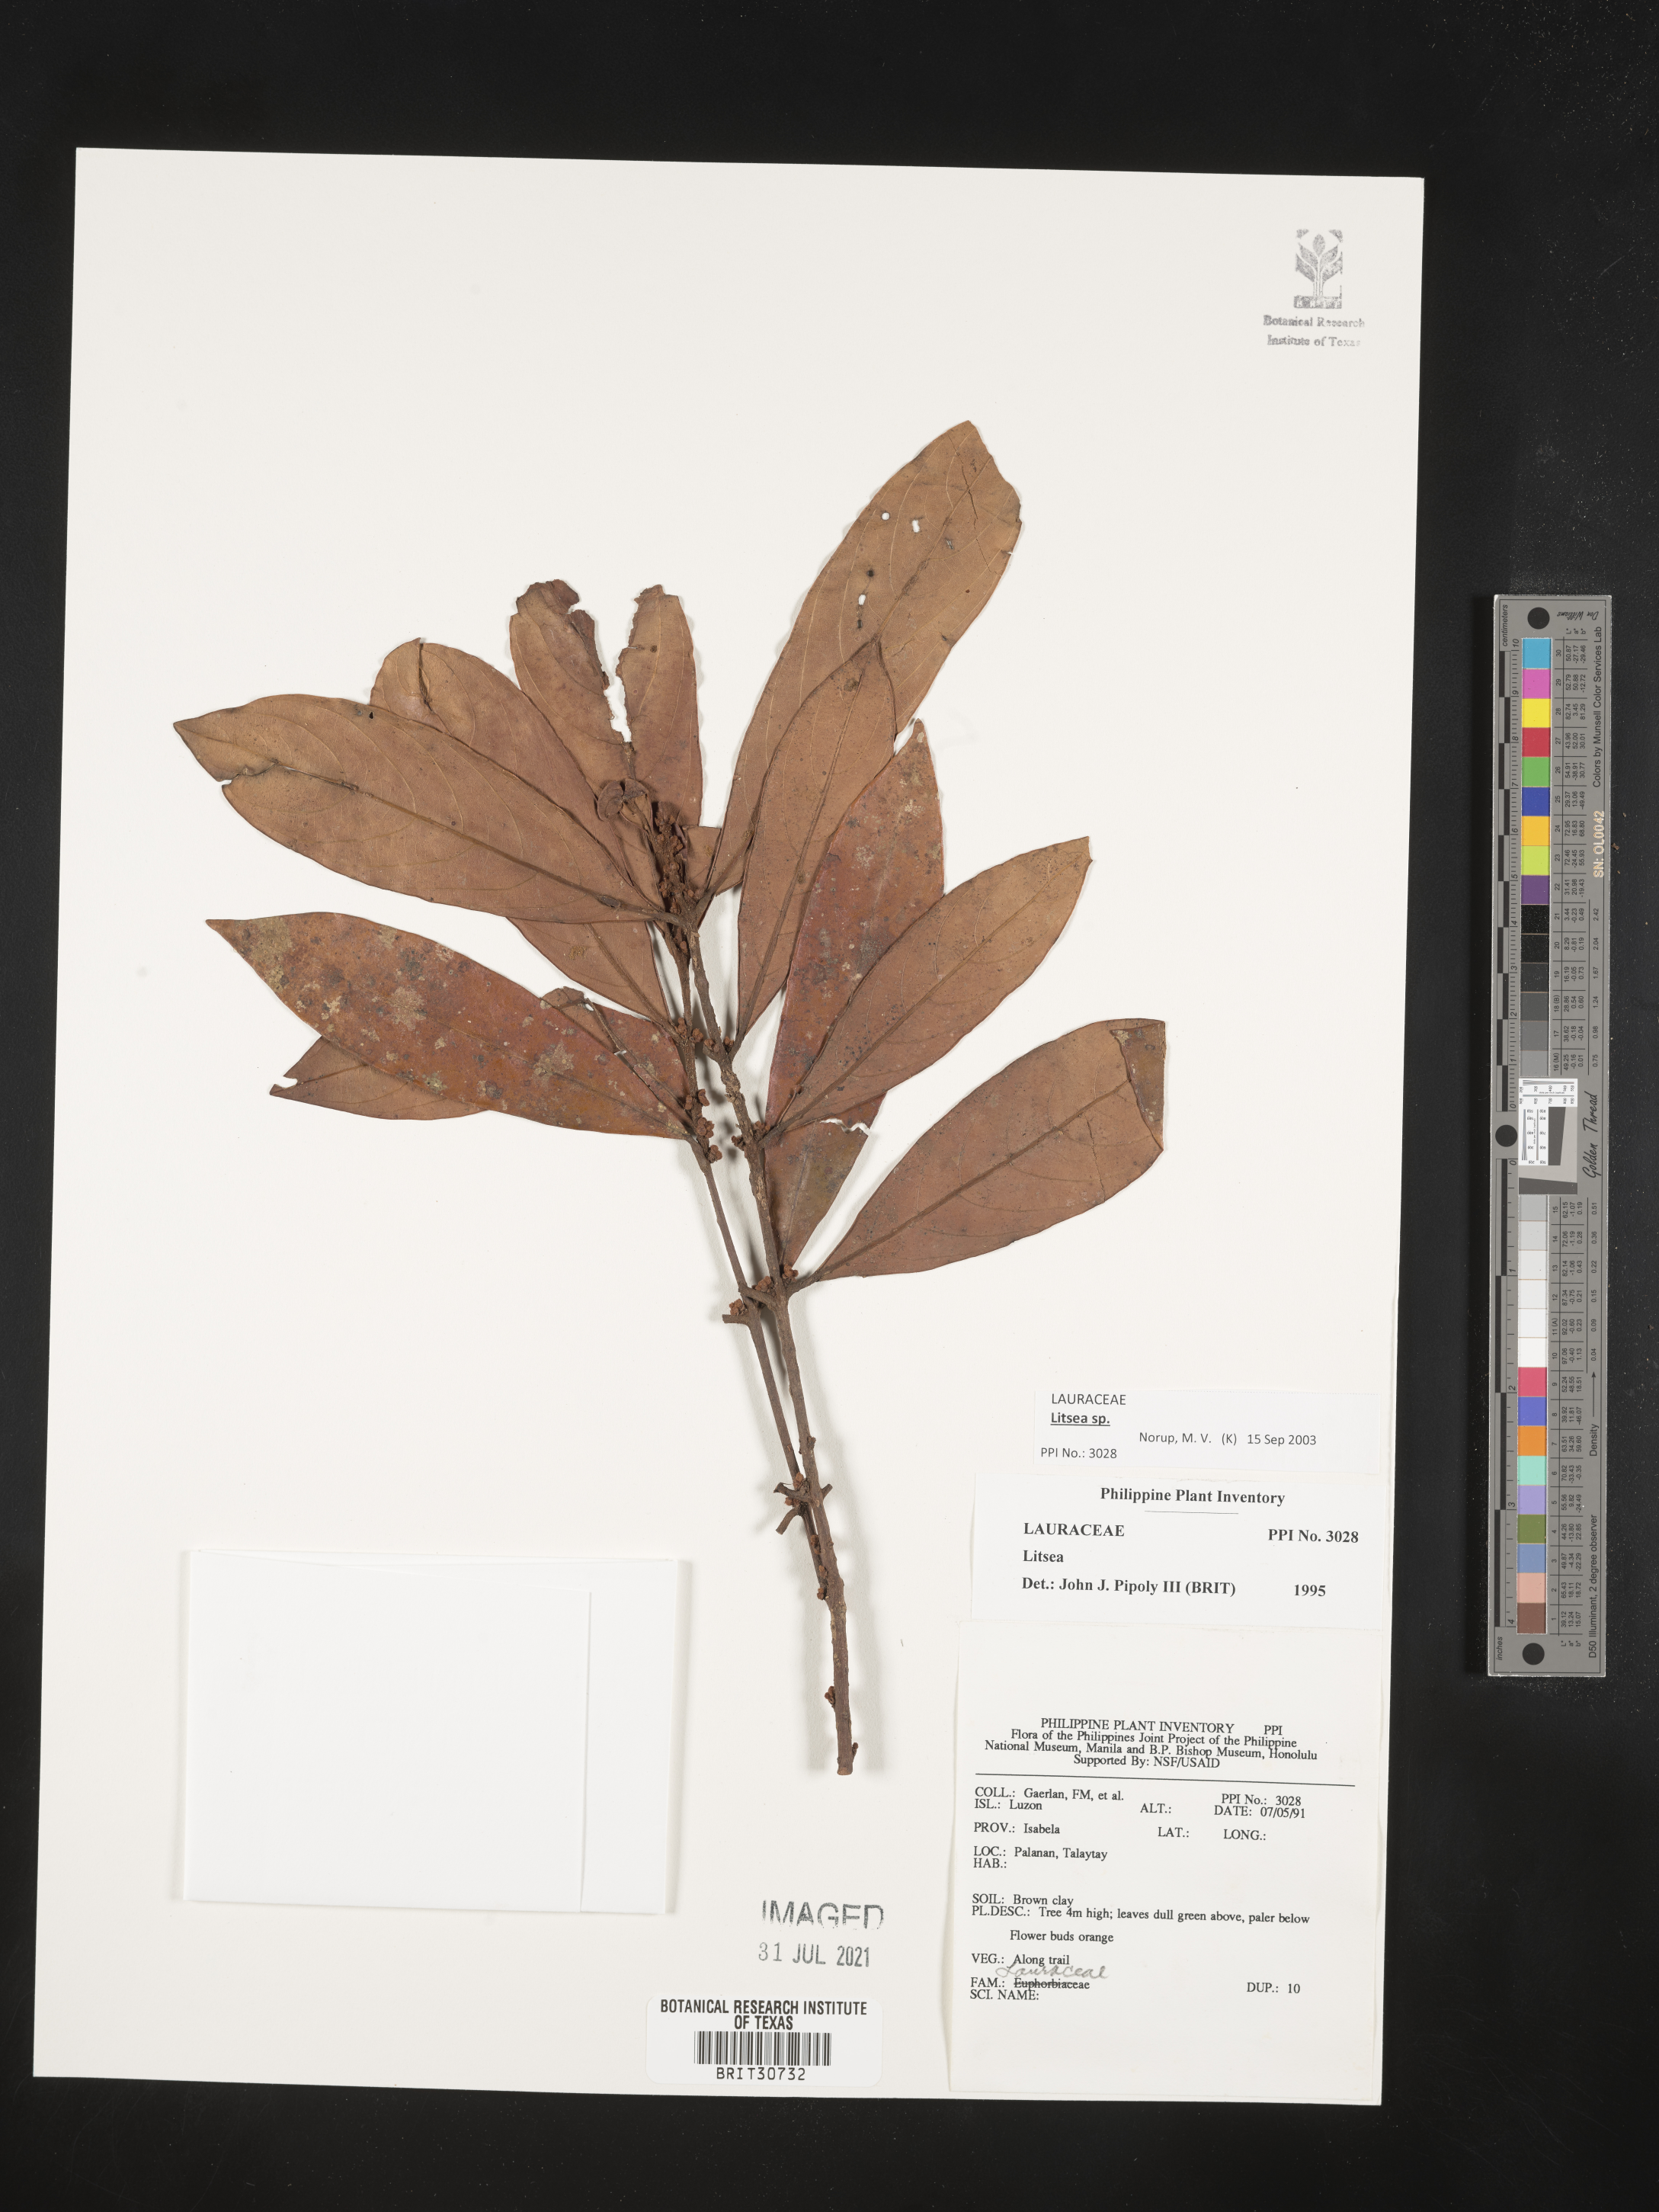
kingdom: Plantae
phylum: Tracheophyta
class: Magnoliopsida
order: Laurales
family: Lauraceae
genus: Litsea
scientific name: Litsea
